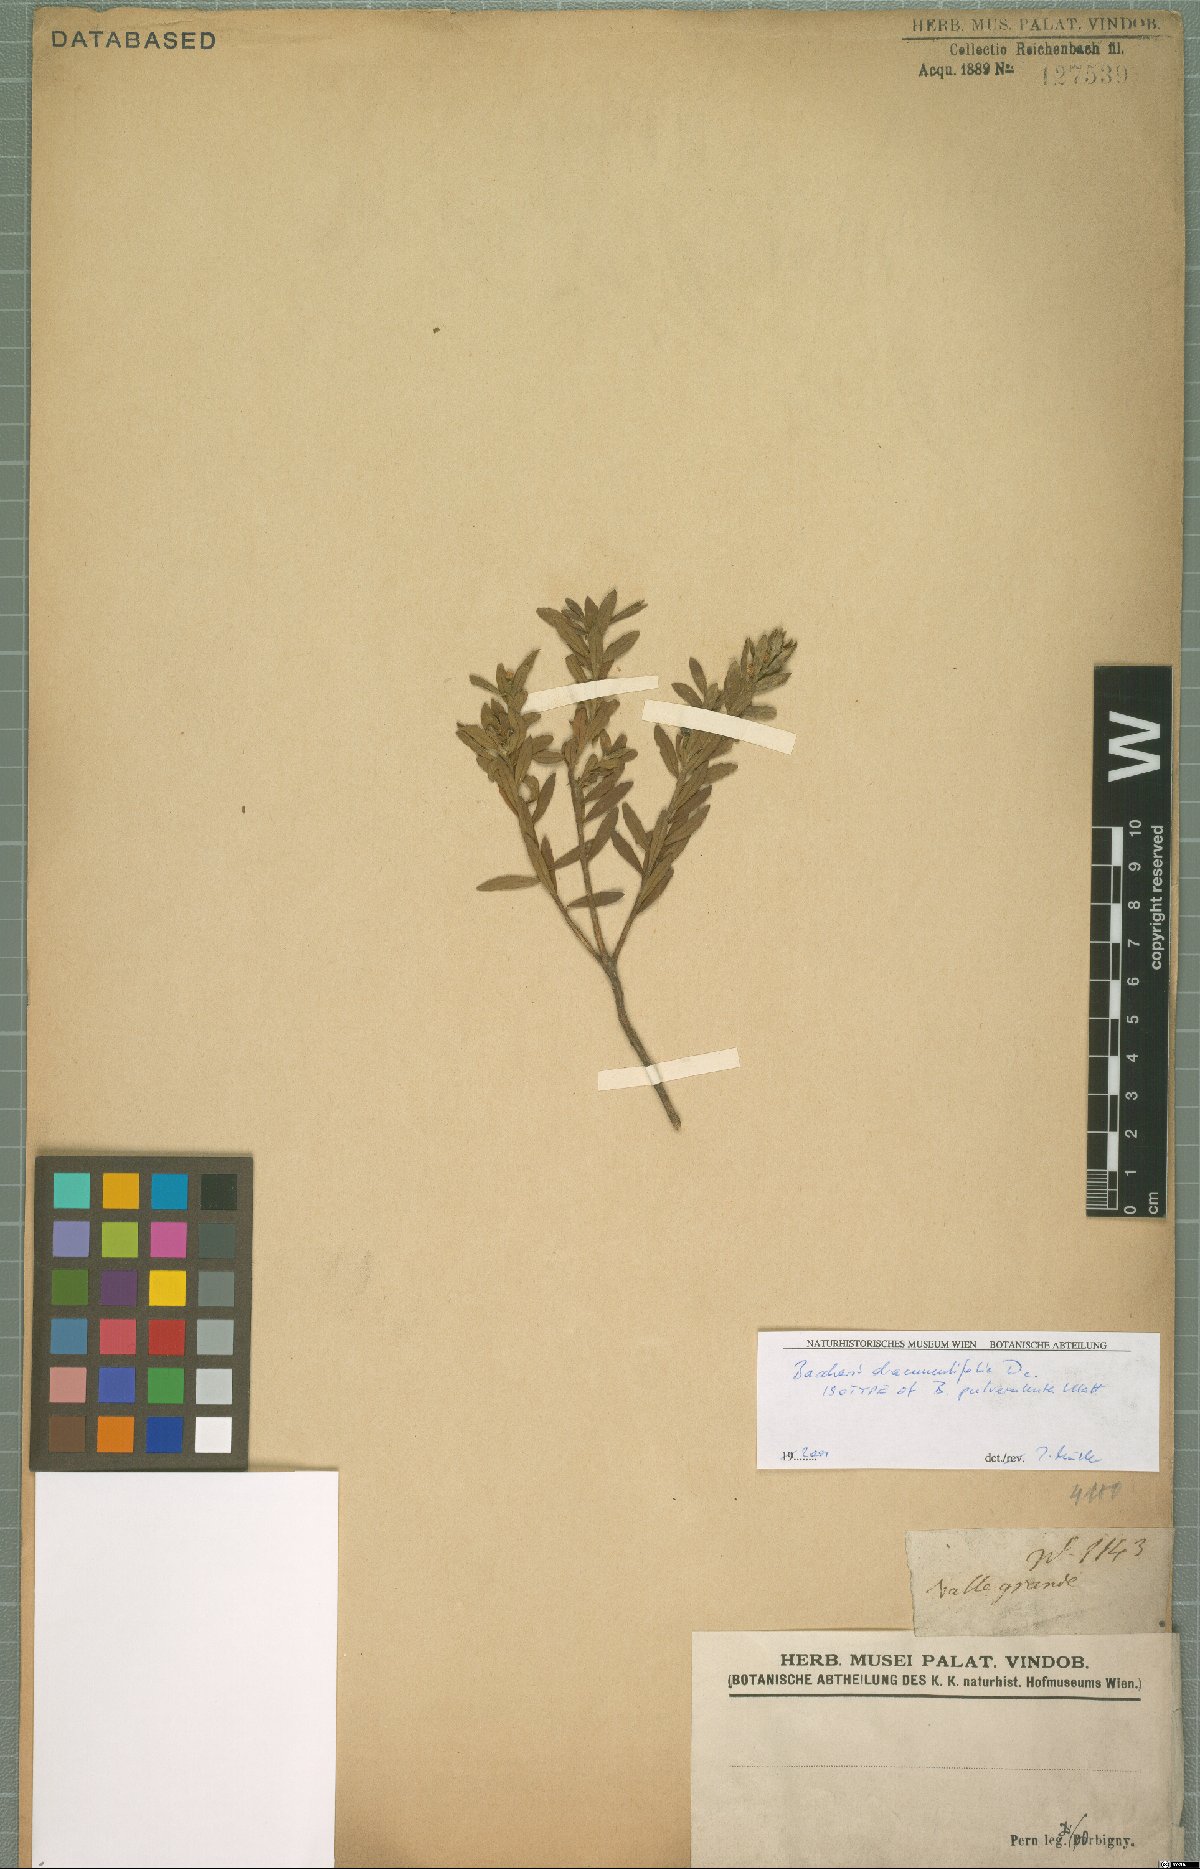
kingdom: Plantae
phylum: Tracheophyta
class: Magnoliopsida
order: Asterales
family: Asteraceae
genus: Baccharis
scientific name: Baccharis dracunculifolia
